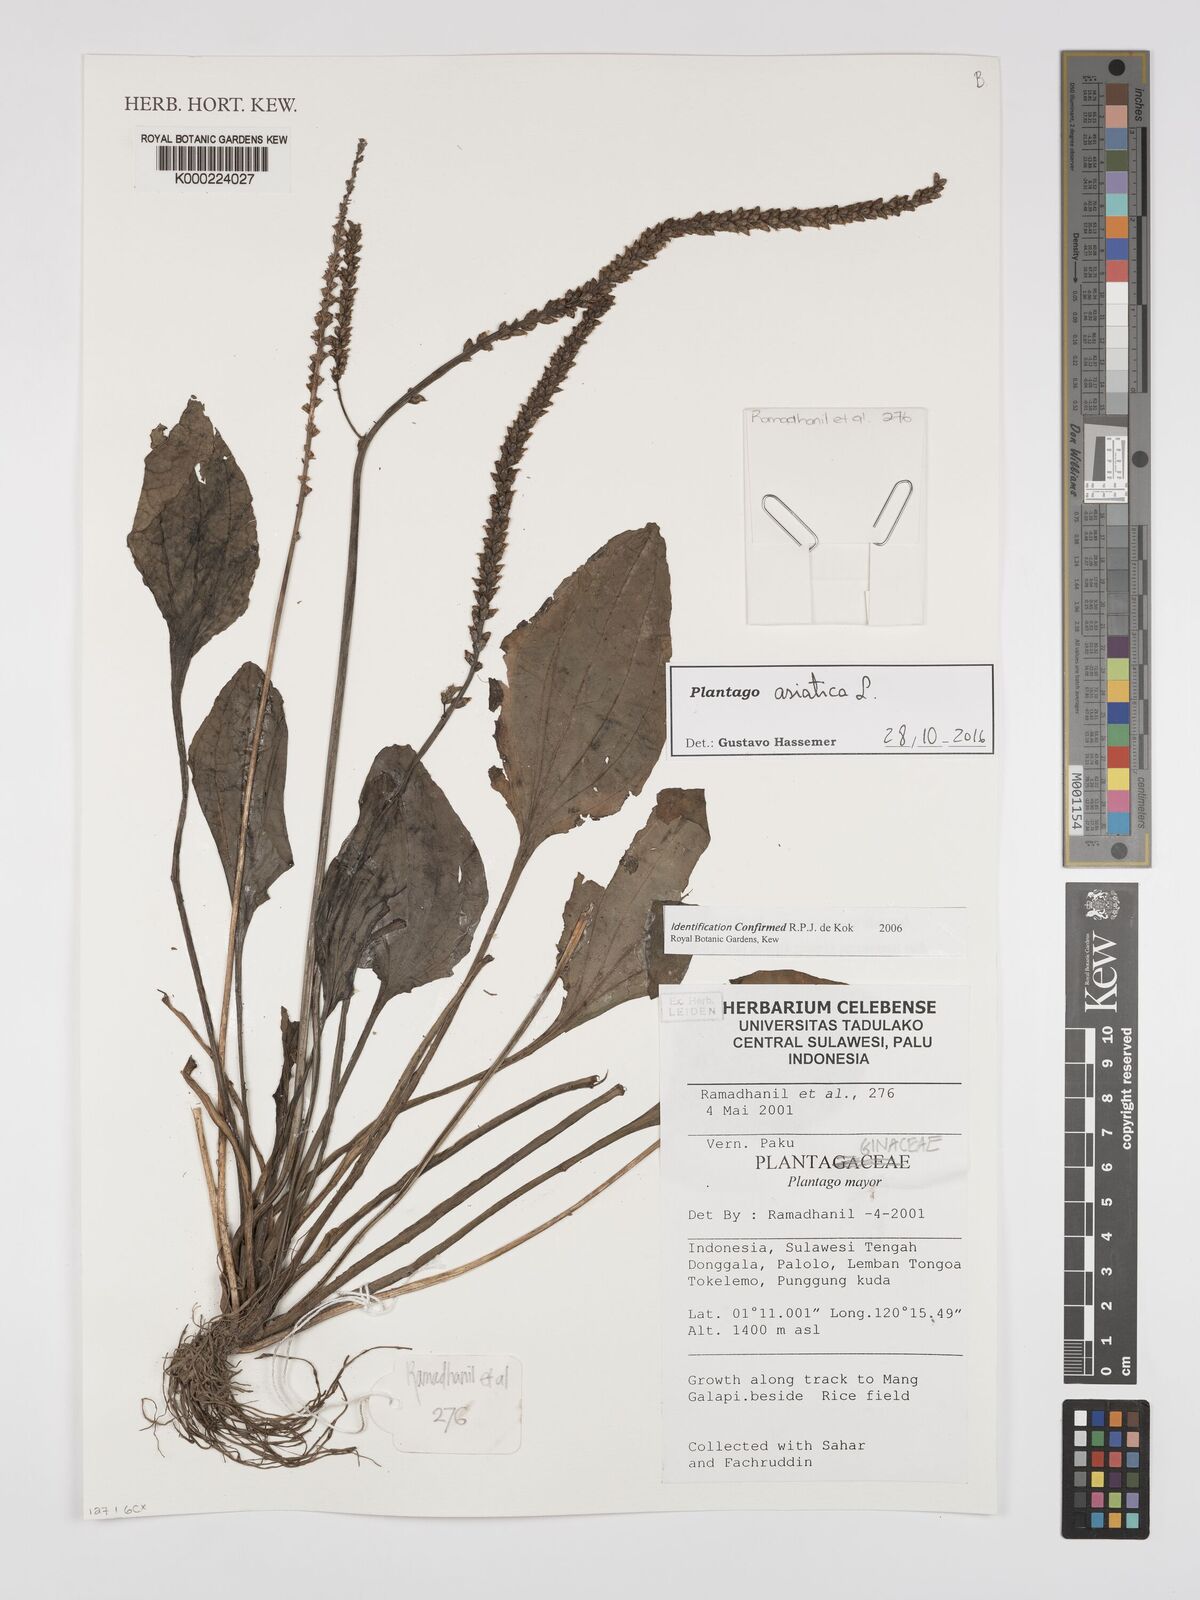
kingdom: Plantae
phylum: Tracheophyta
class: Magnoliopsida
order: Lamiales
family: Plantaginaceae
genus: Plantago
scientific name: Plantago asiatica
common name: Psyllium
